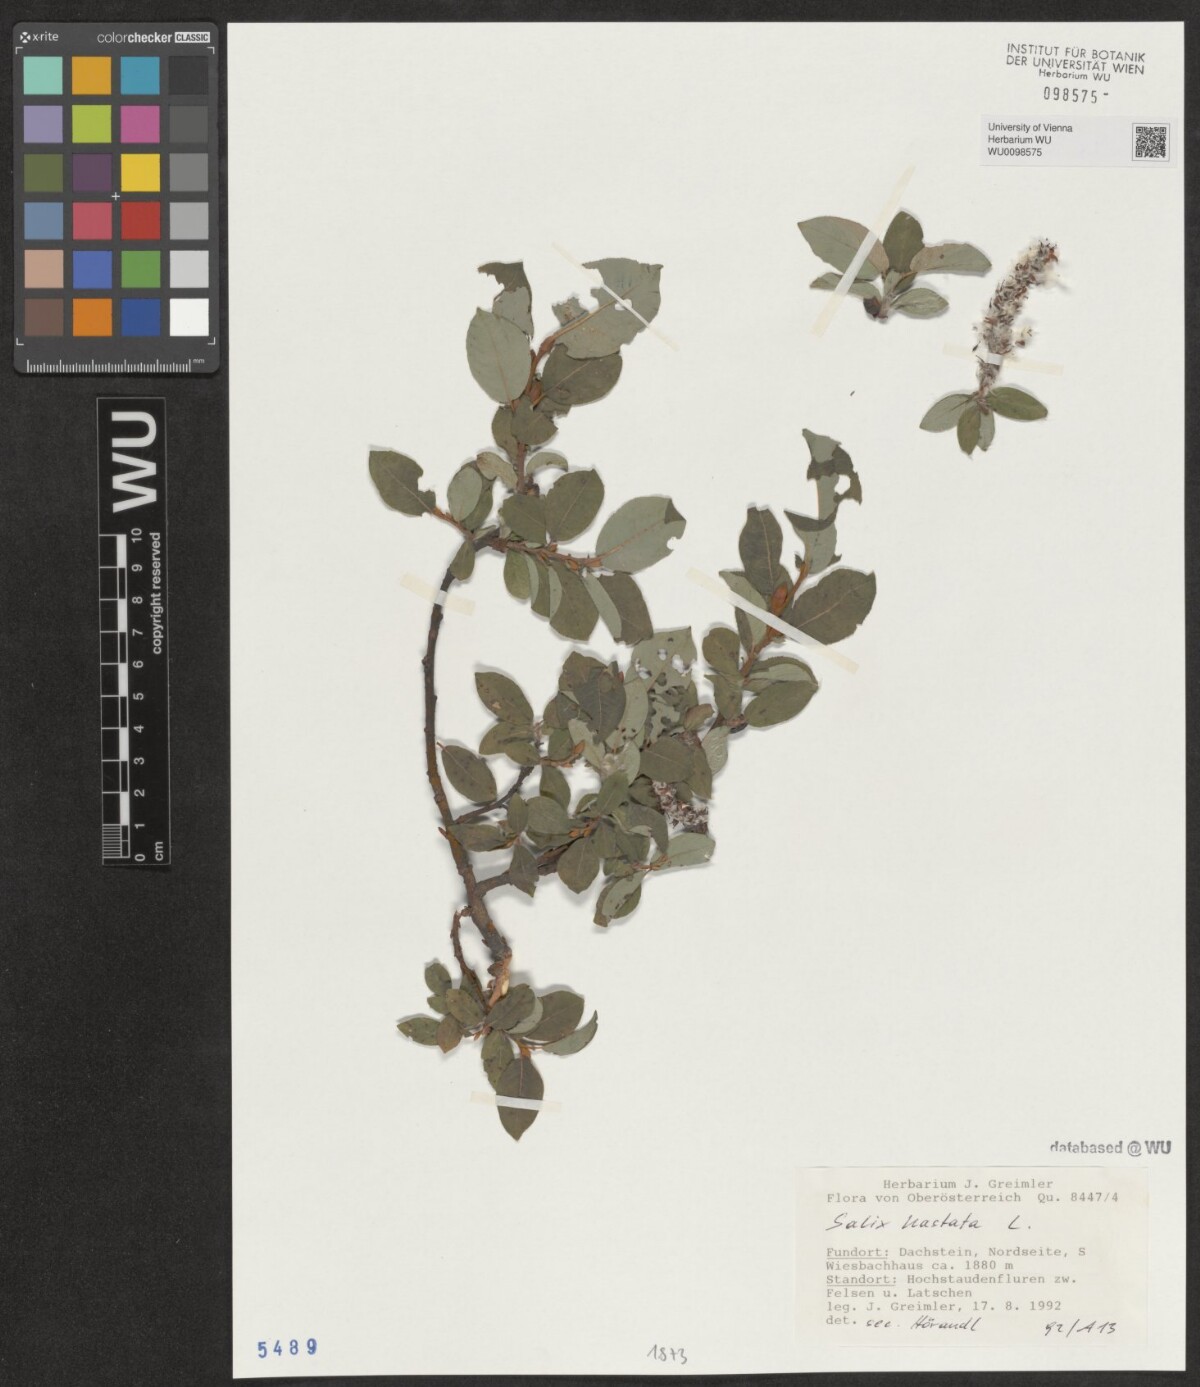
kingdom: Plantae
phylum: Tracheophyta
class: Magnoliopsida
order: Malpighiales
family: Salicaceae
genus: Salix
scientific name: Salix hastata
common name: Halberd willow
